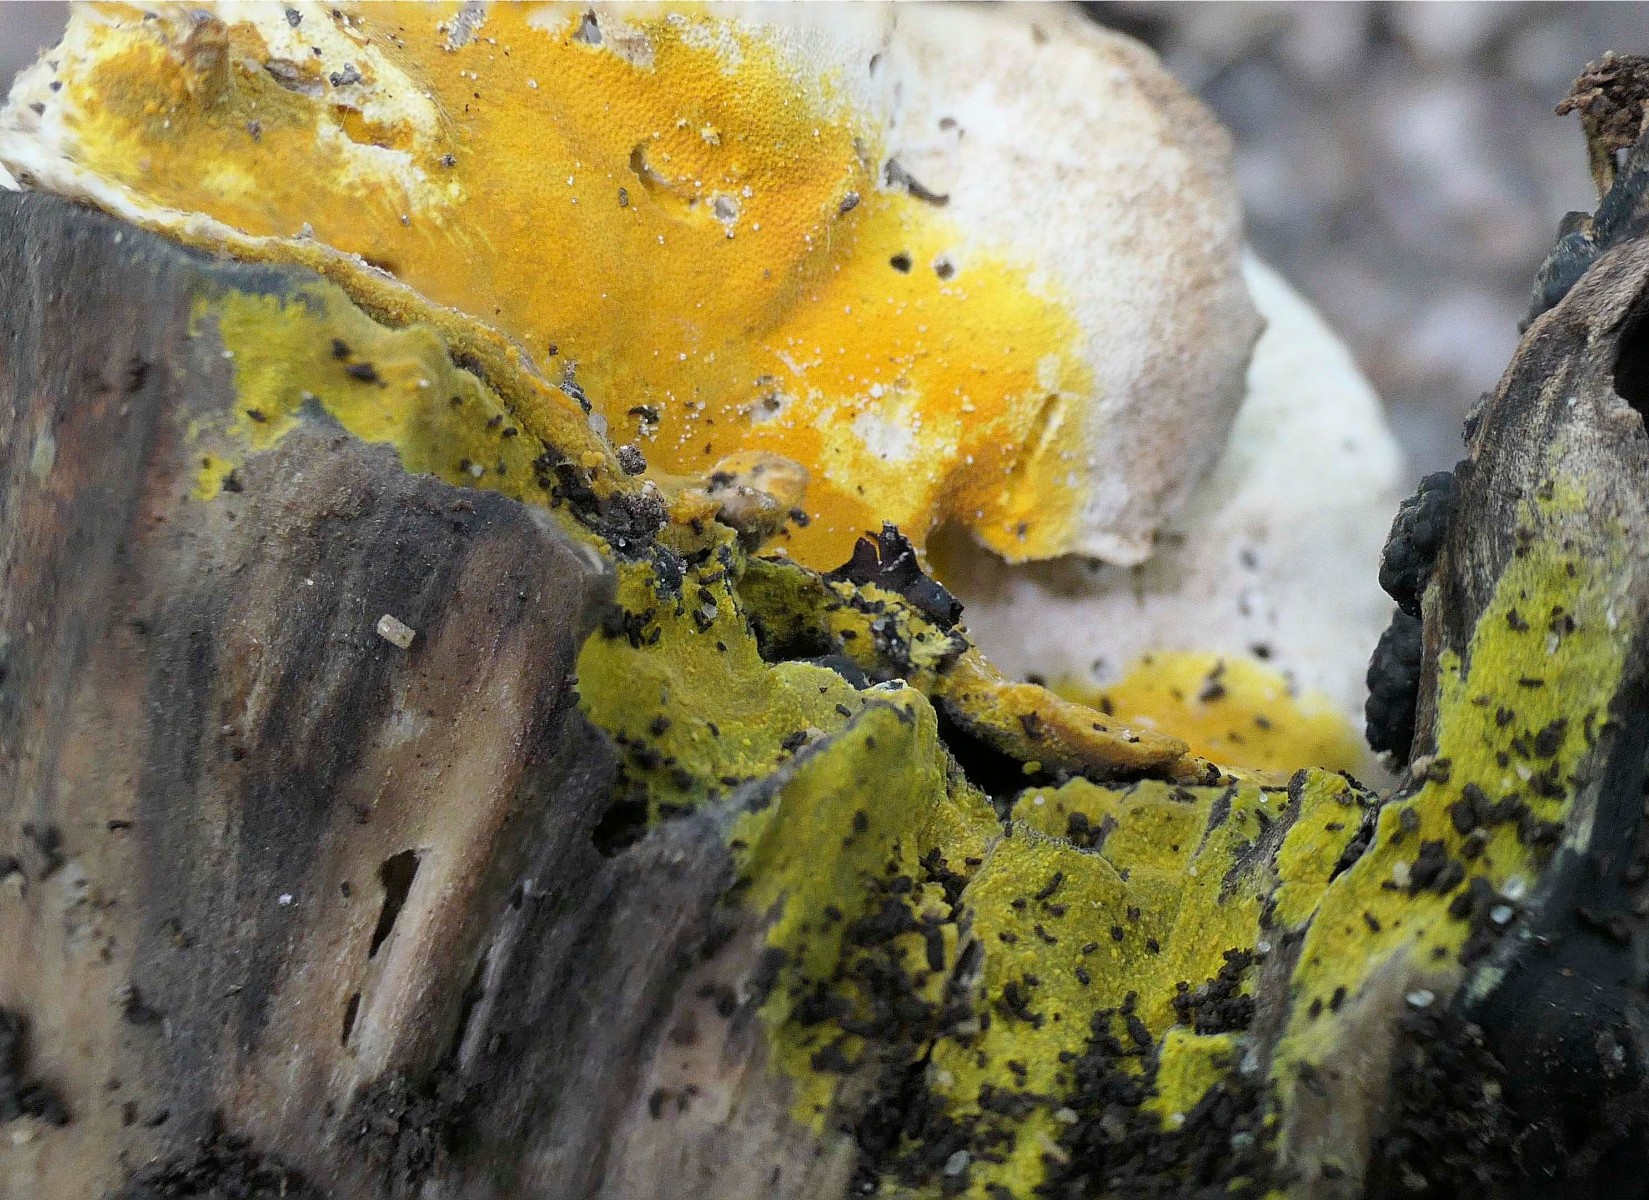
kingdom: Fungi
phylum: Basidiomycota
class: Agaricomycetes
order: Polyporales
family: Meruliaceae
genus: Phlebiodontia
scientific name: Phlebiodontia subochracea
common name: svovl-åresvamp
